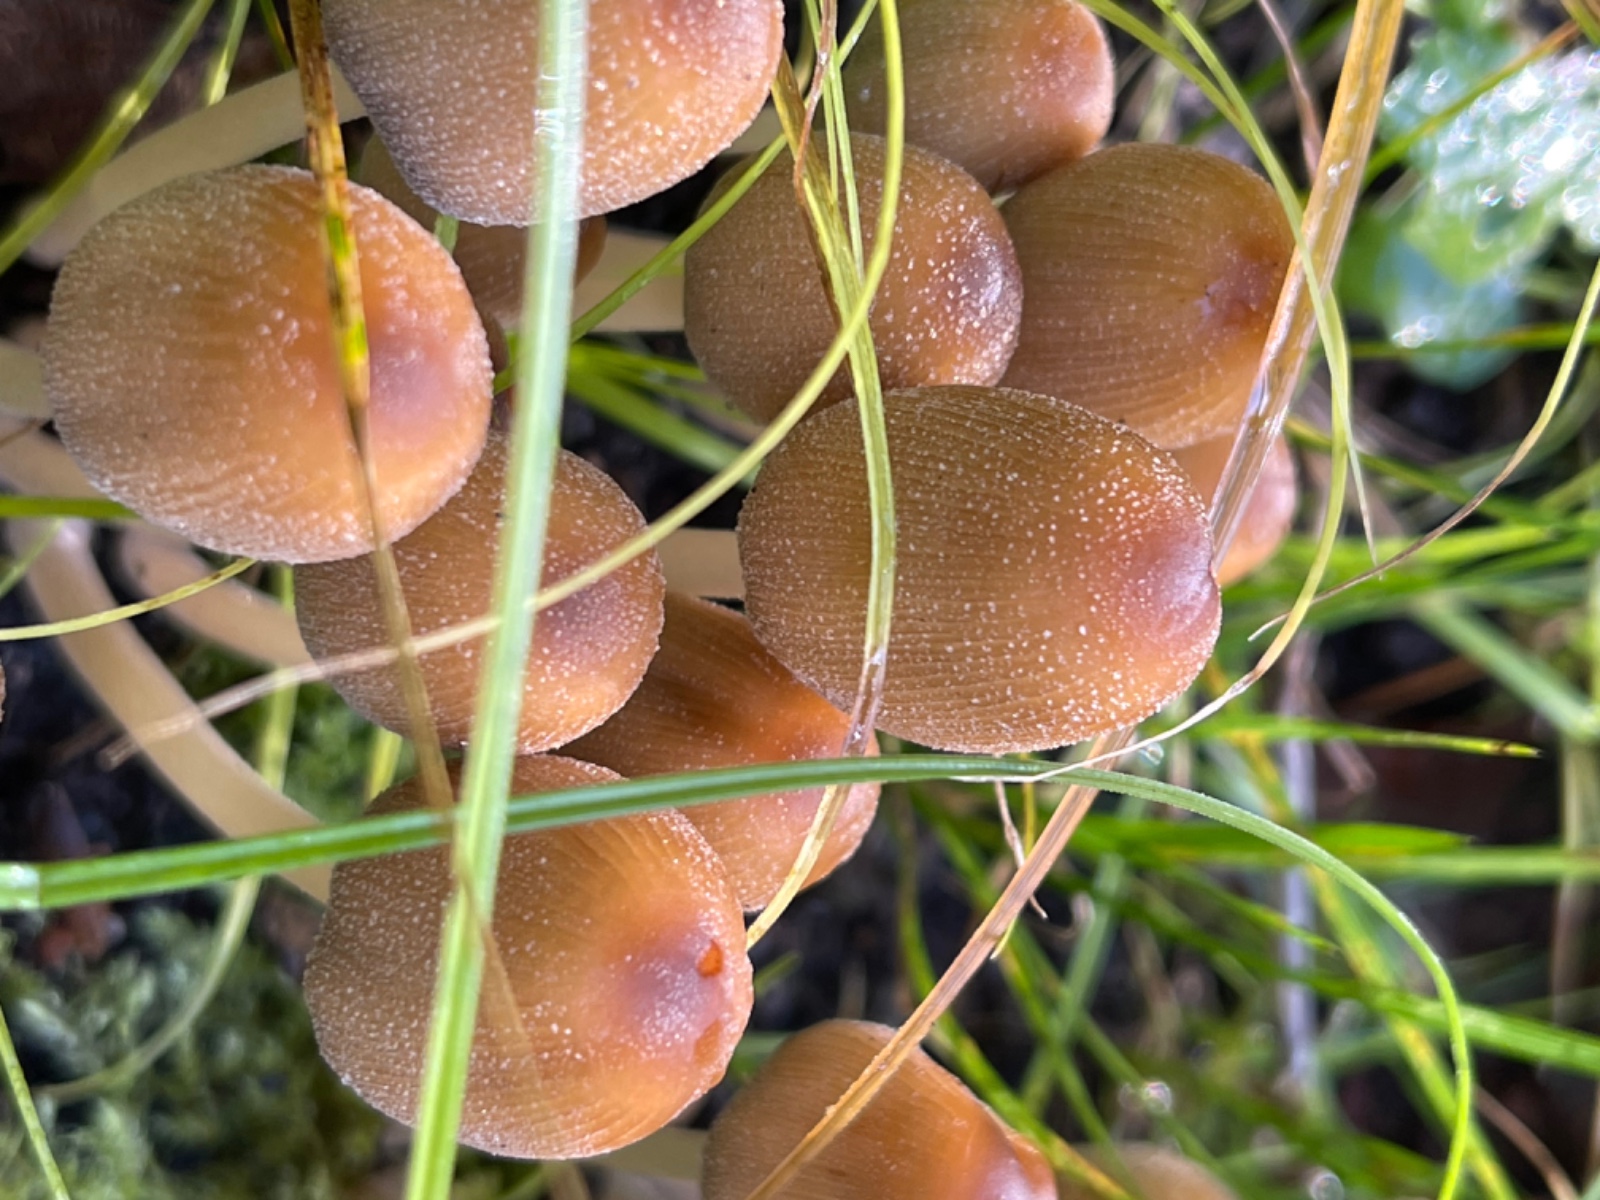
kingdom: Fungi
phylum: Basidiomycota
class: Agaricomycetes
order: Agaricales
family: Psathyrellaceae
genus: Coprinellus
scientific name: Coprinellus micaceus
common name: glimmer-blækhat
